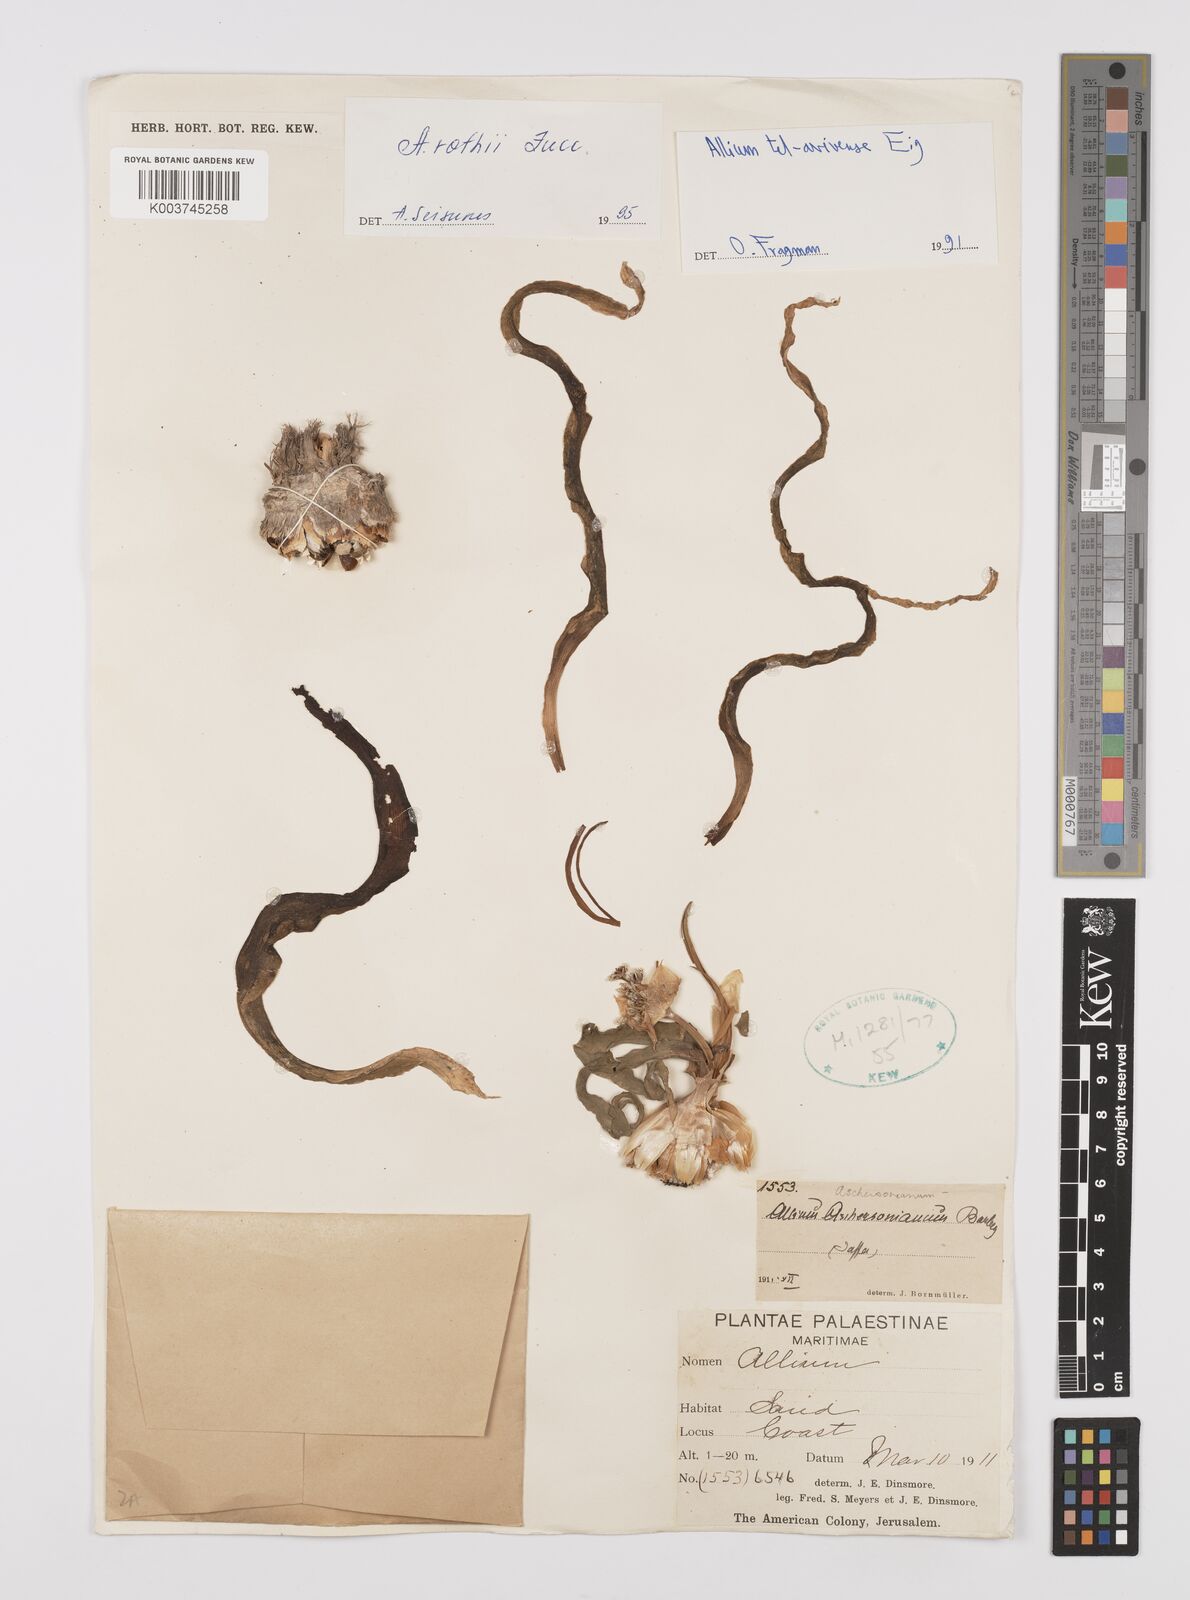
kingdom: Plantae
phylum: Tracheophyta
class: Liliopsida
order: Asparagales
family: Amaryllidaceae
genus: Allium
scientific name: Allium tel-avivense
